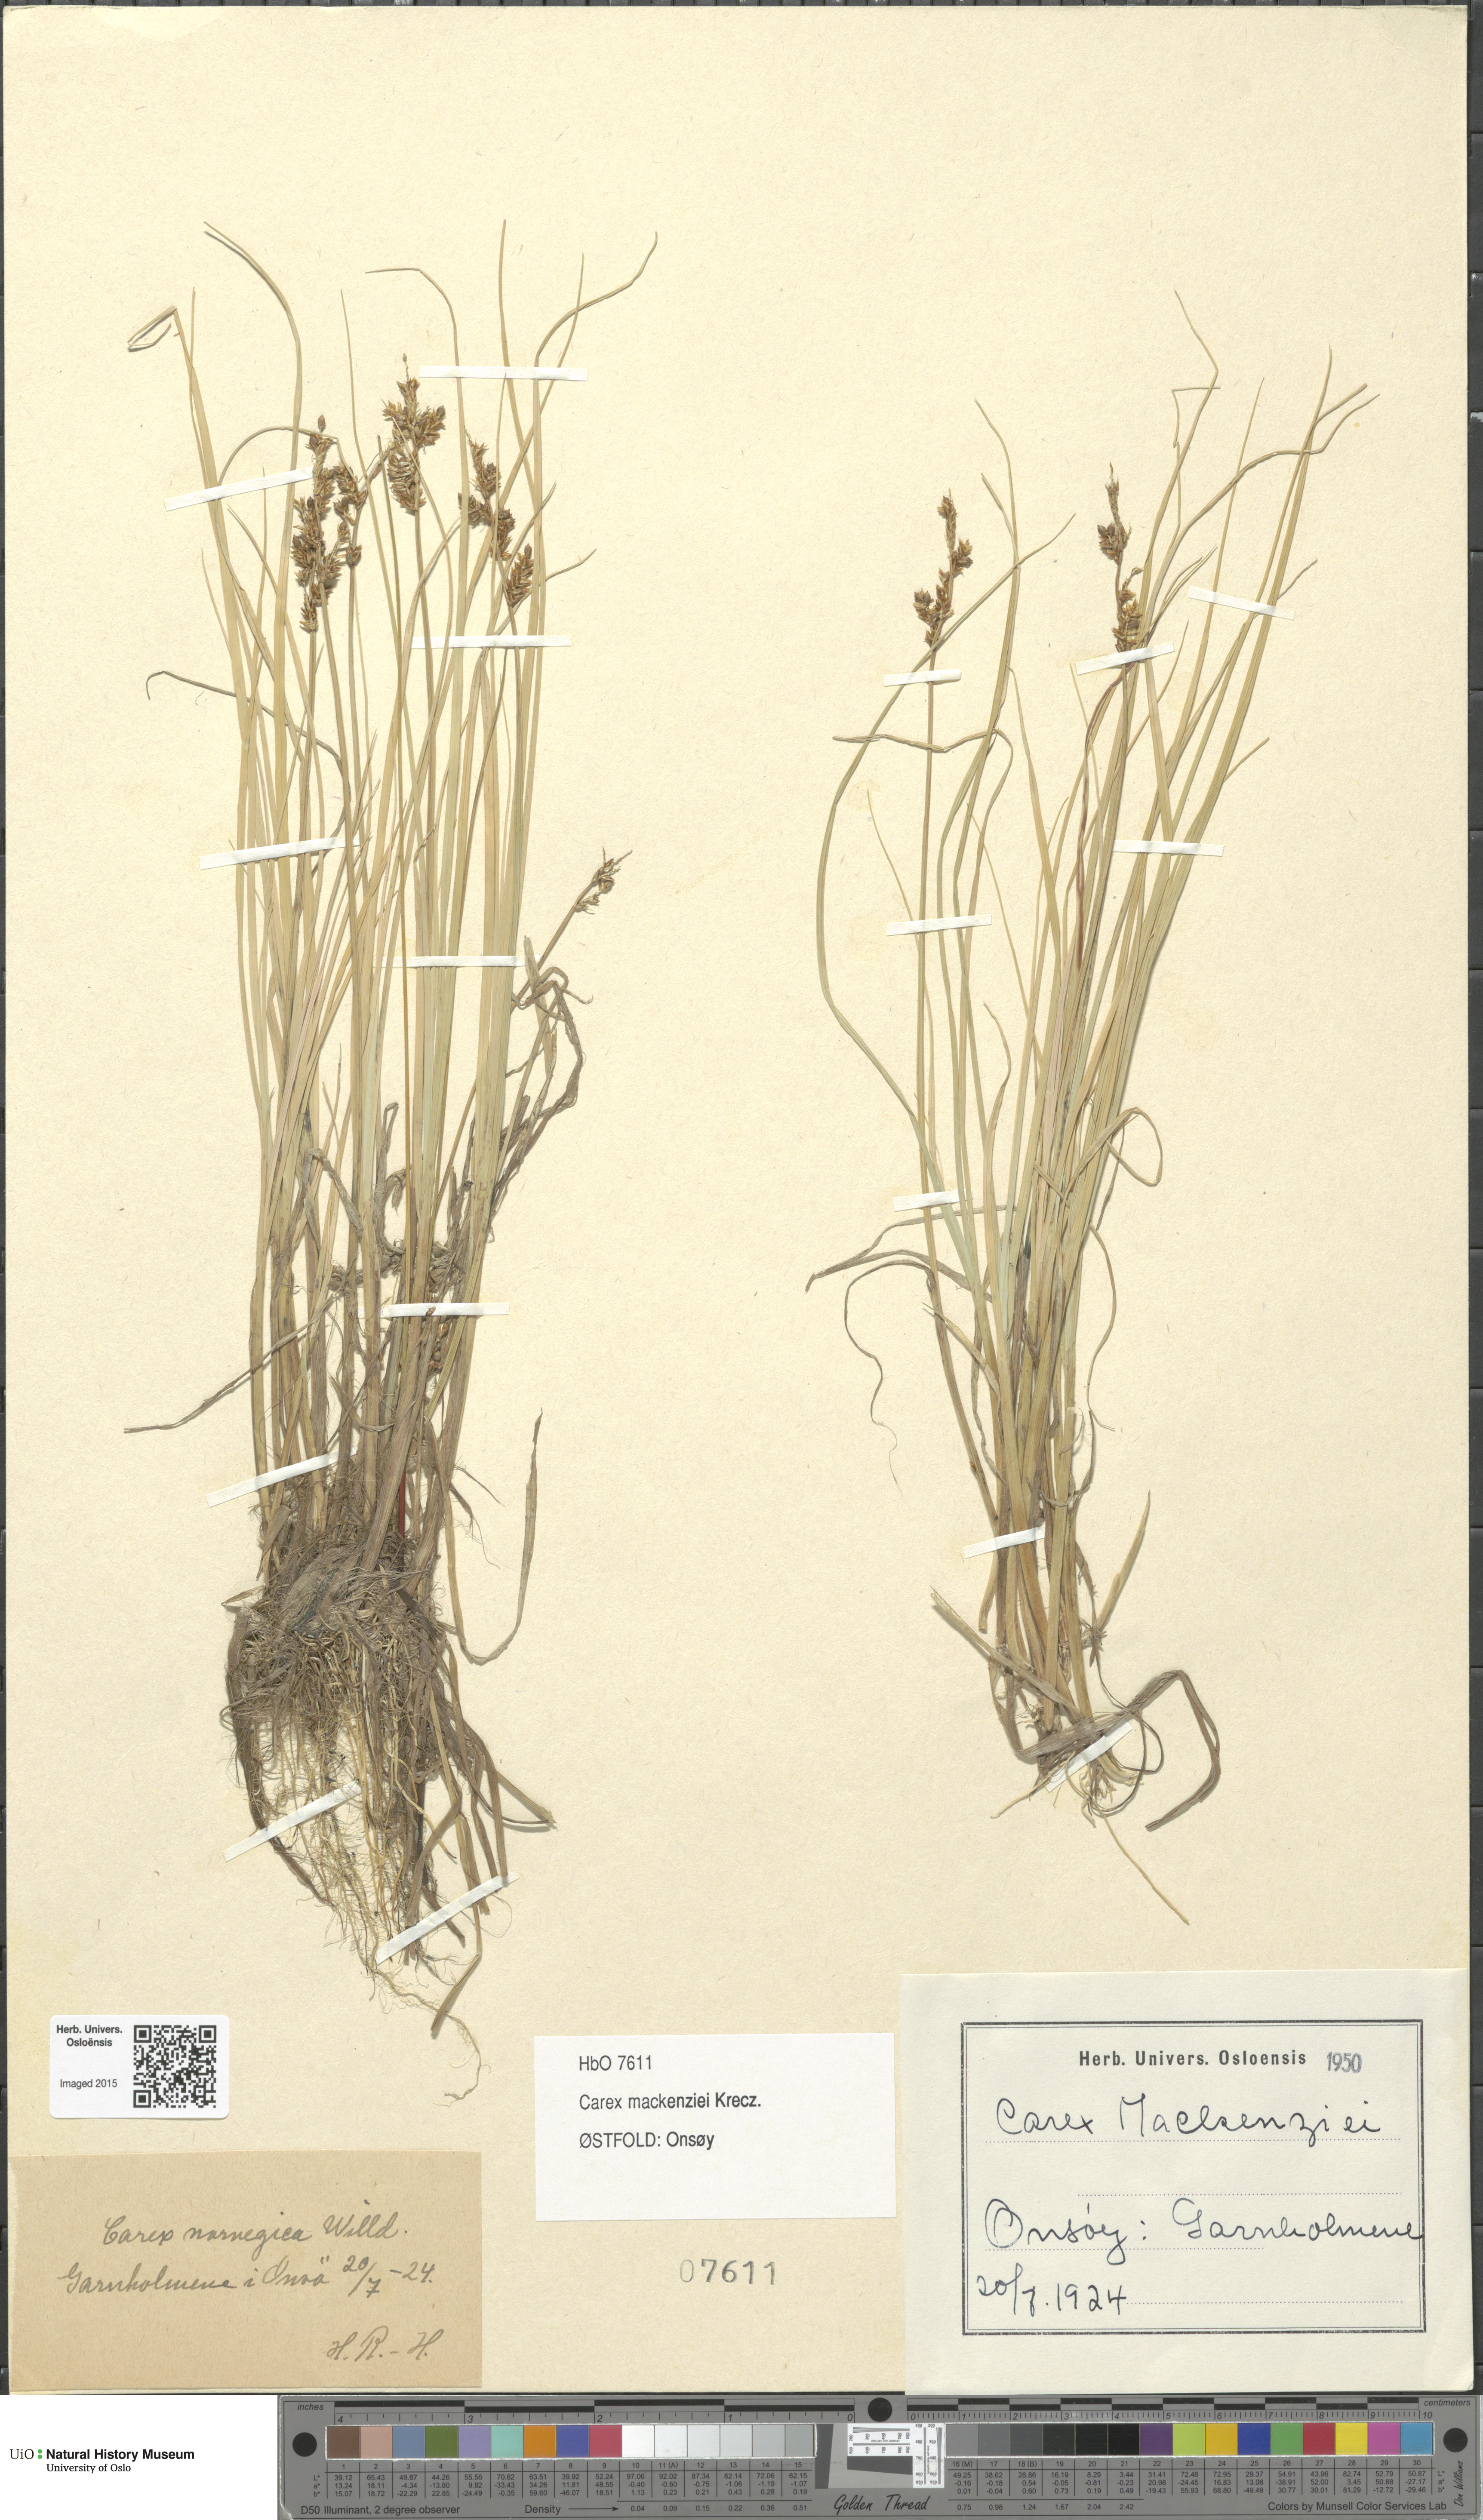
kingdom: Plantae
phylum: Tracheophyta
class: Liliopsida
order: Poales
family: Cyperaceae
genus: Carex
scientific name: Carex mackenziei
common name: Mackenzie's sedge
